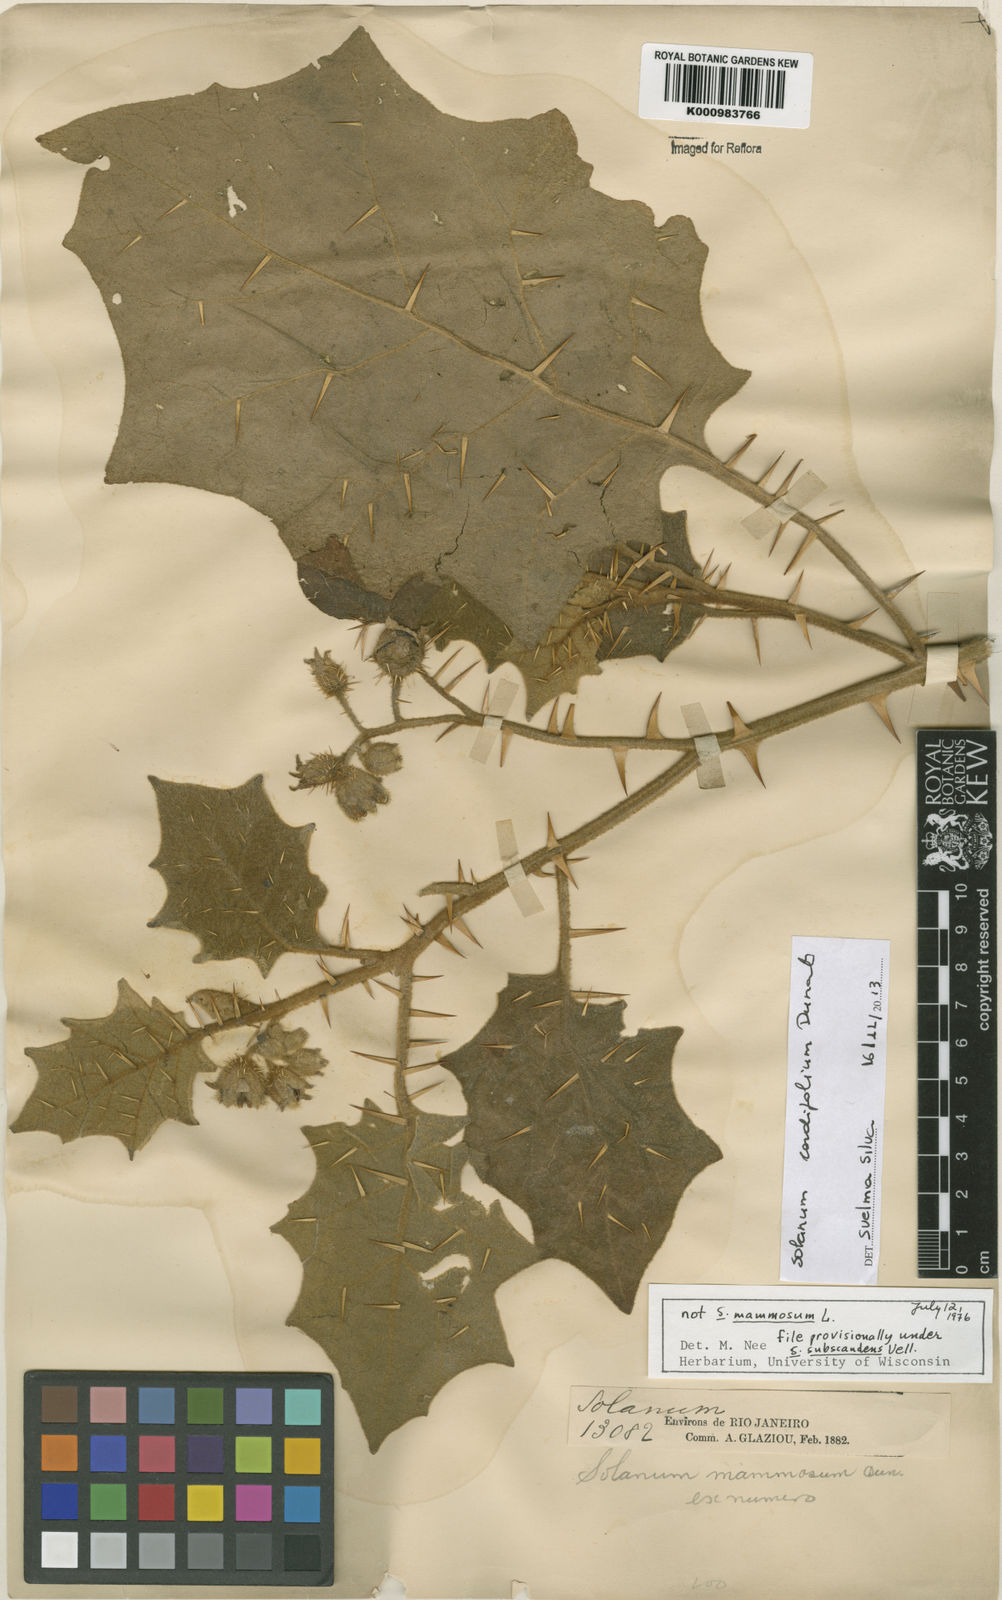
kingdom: Plantae
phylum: Tracheophyta
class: Magnoliopsida
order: Solanales
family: Solanaceae
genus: Solanum
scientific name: Solanum
